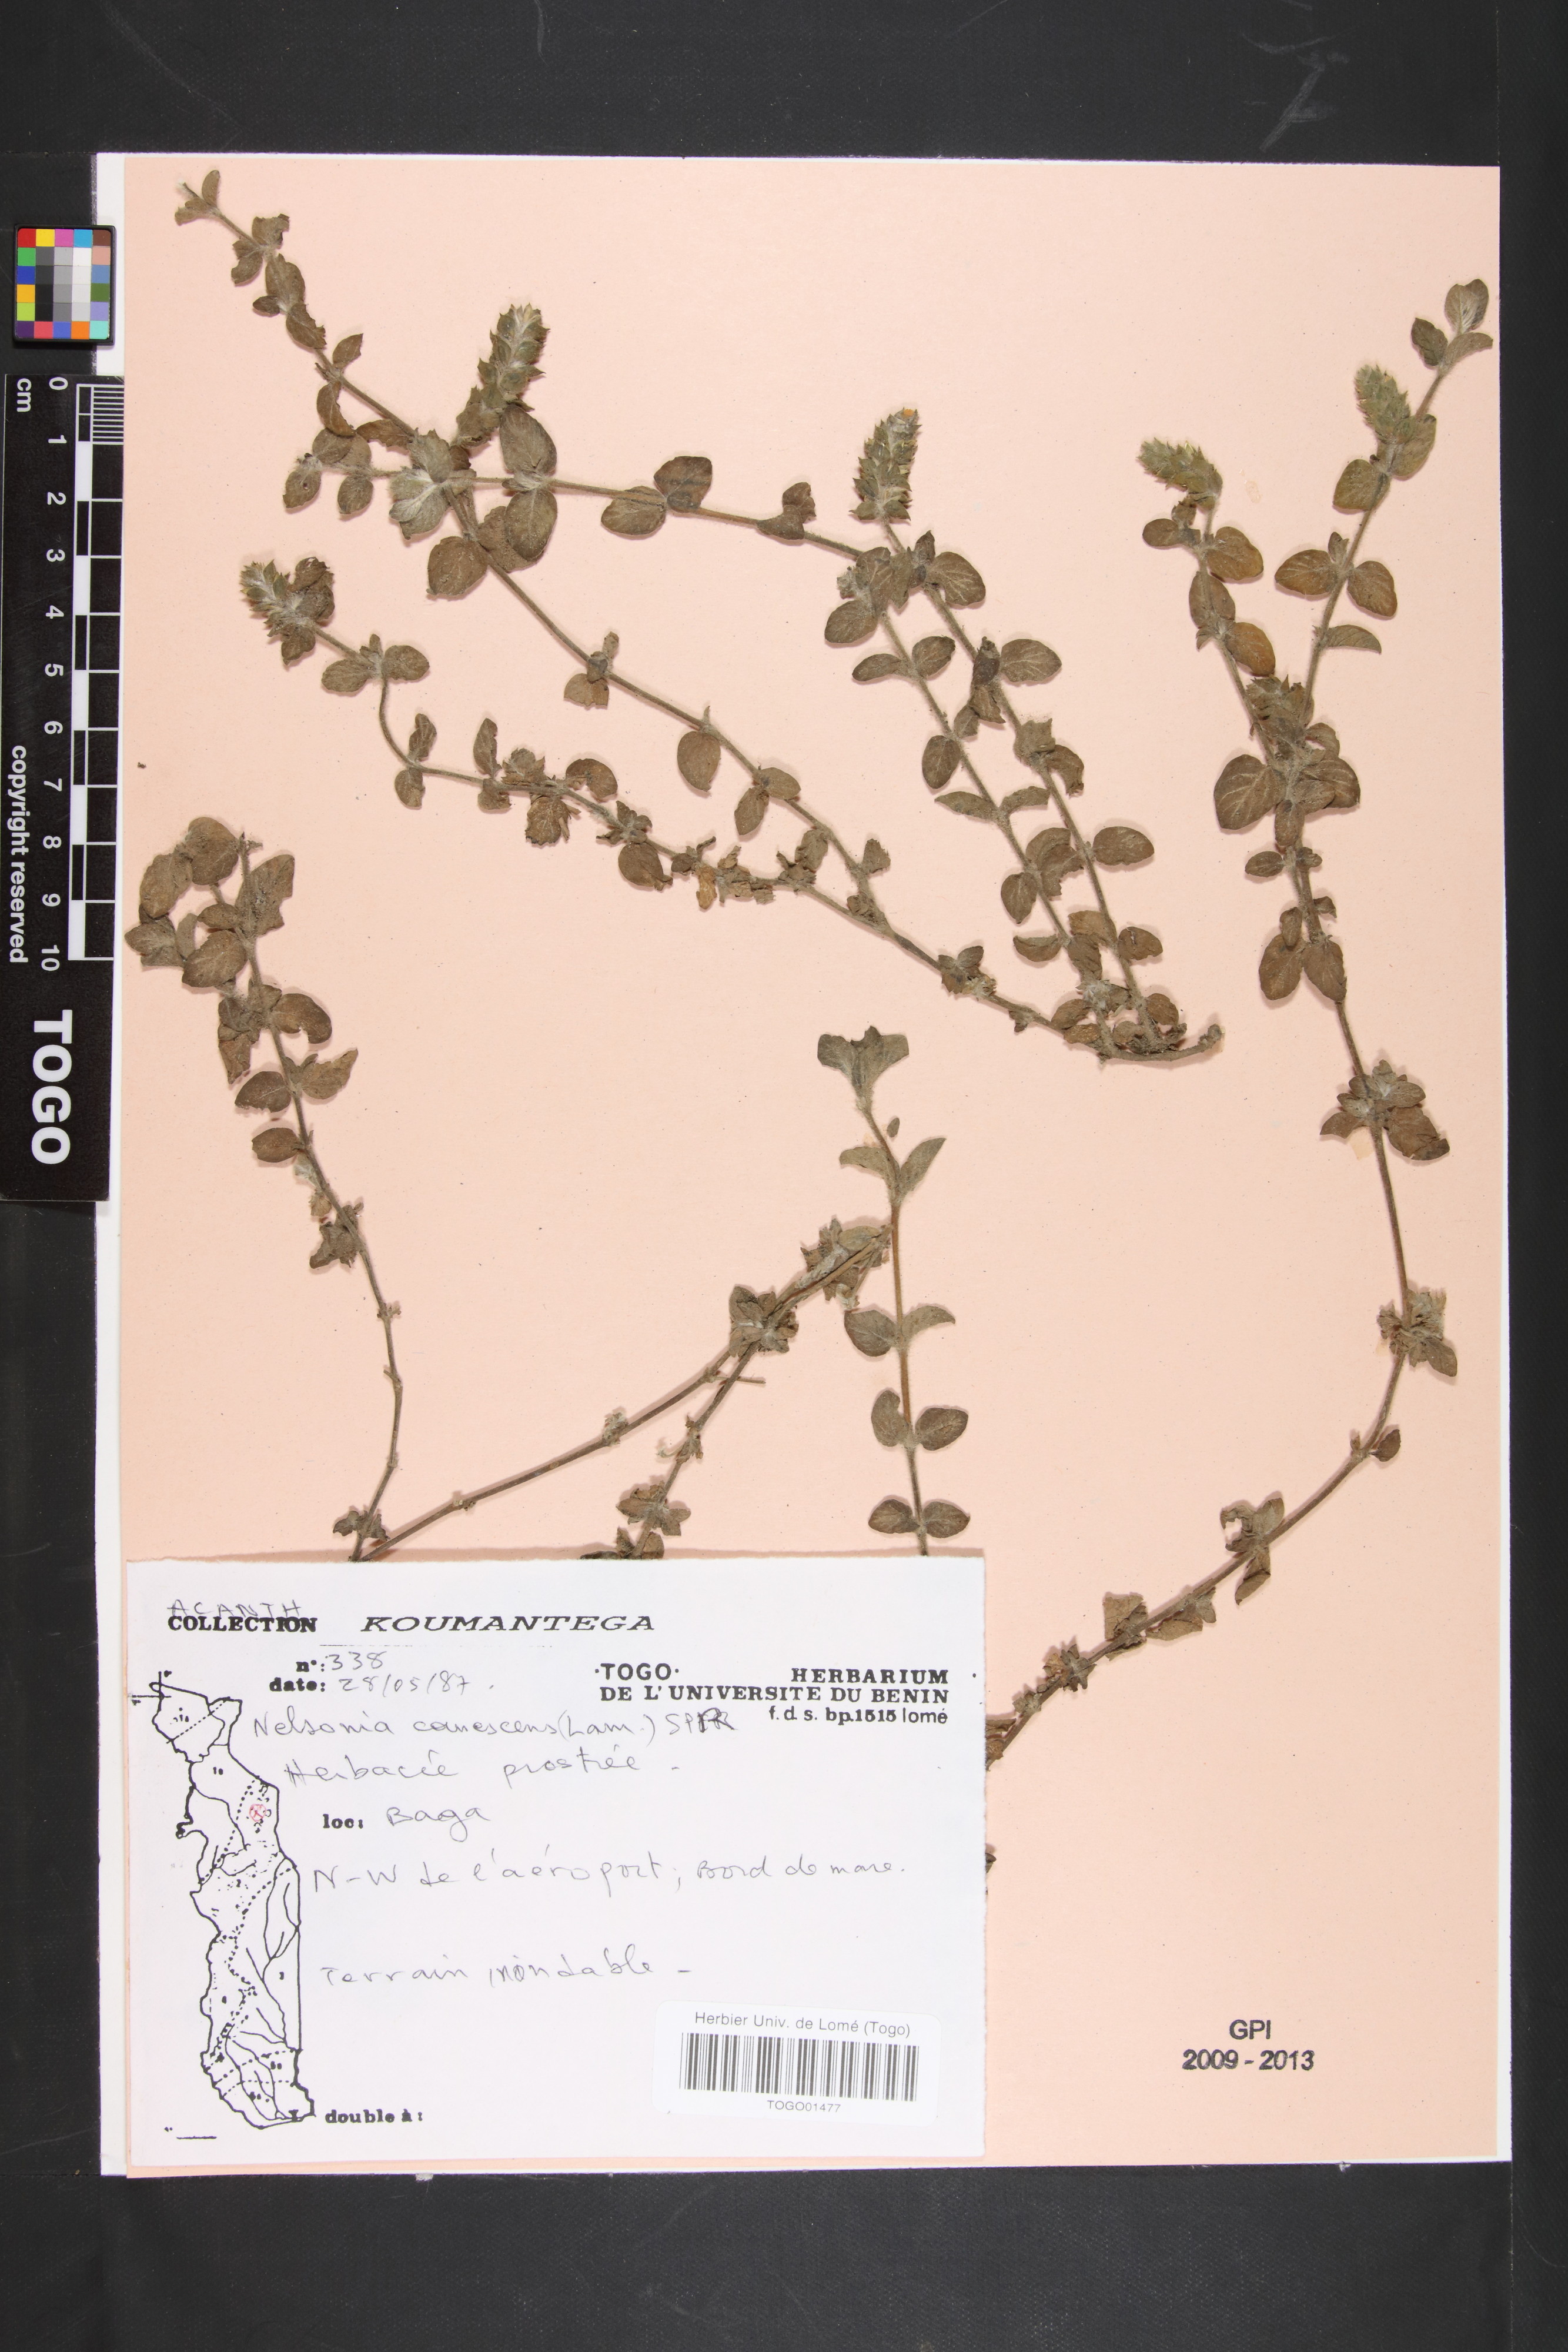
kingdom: Plantae
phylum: Tracheophyta
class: Magnoliopsida
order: Lamiales
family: Acanthaceae
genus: Nelsonia
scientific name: Nelsonia canescens
